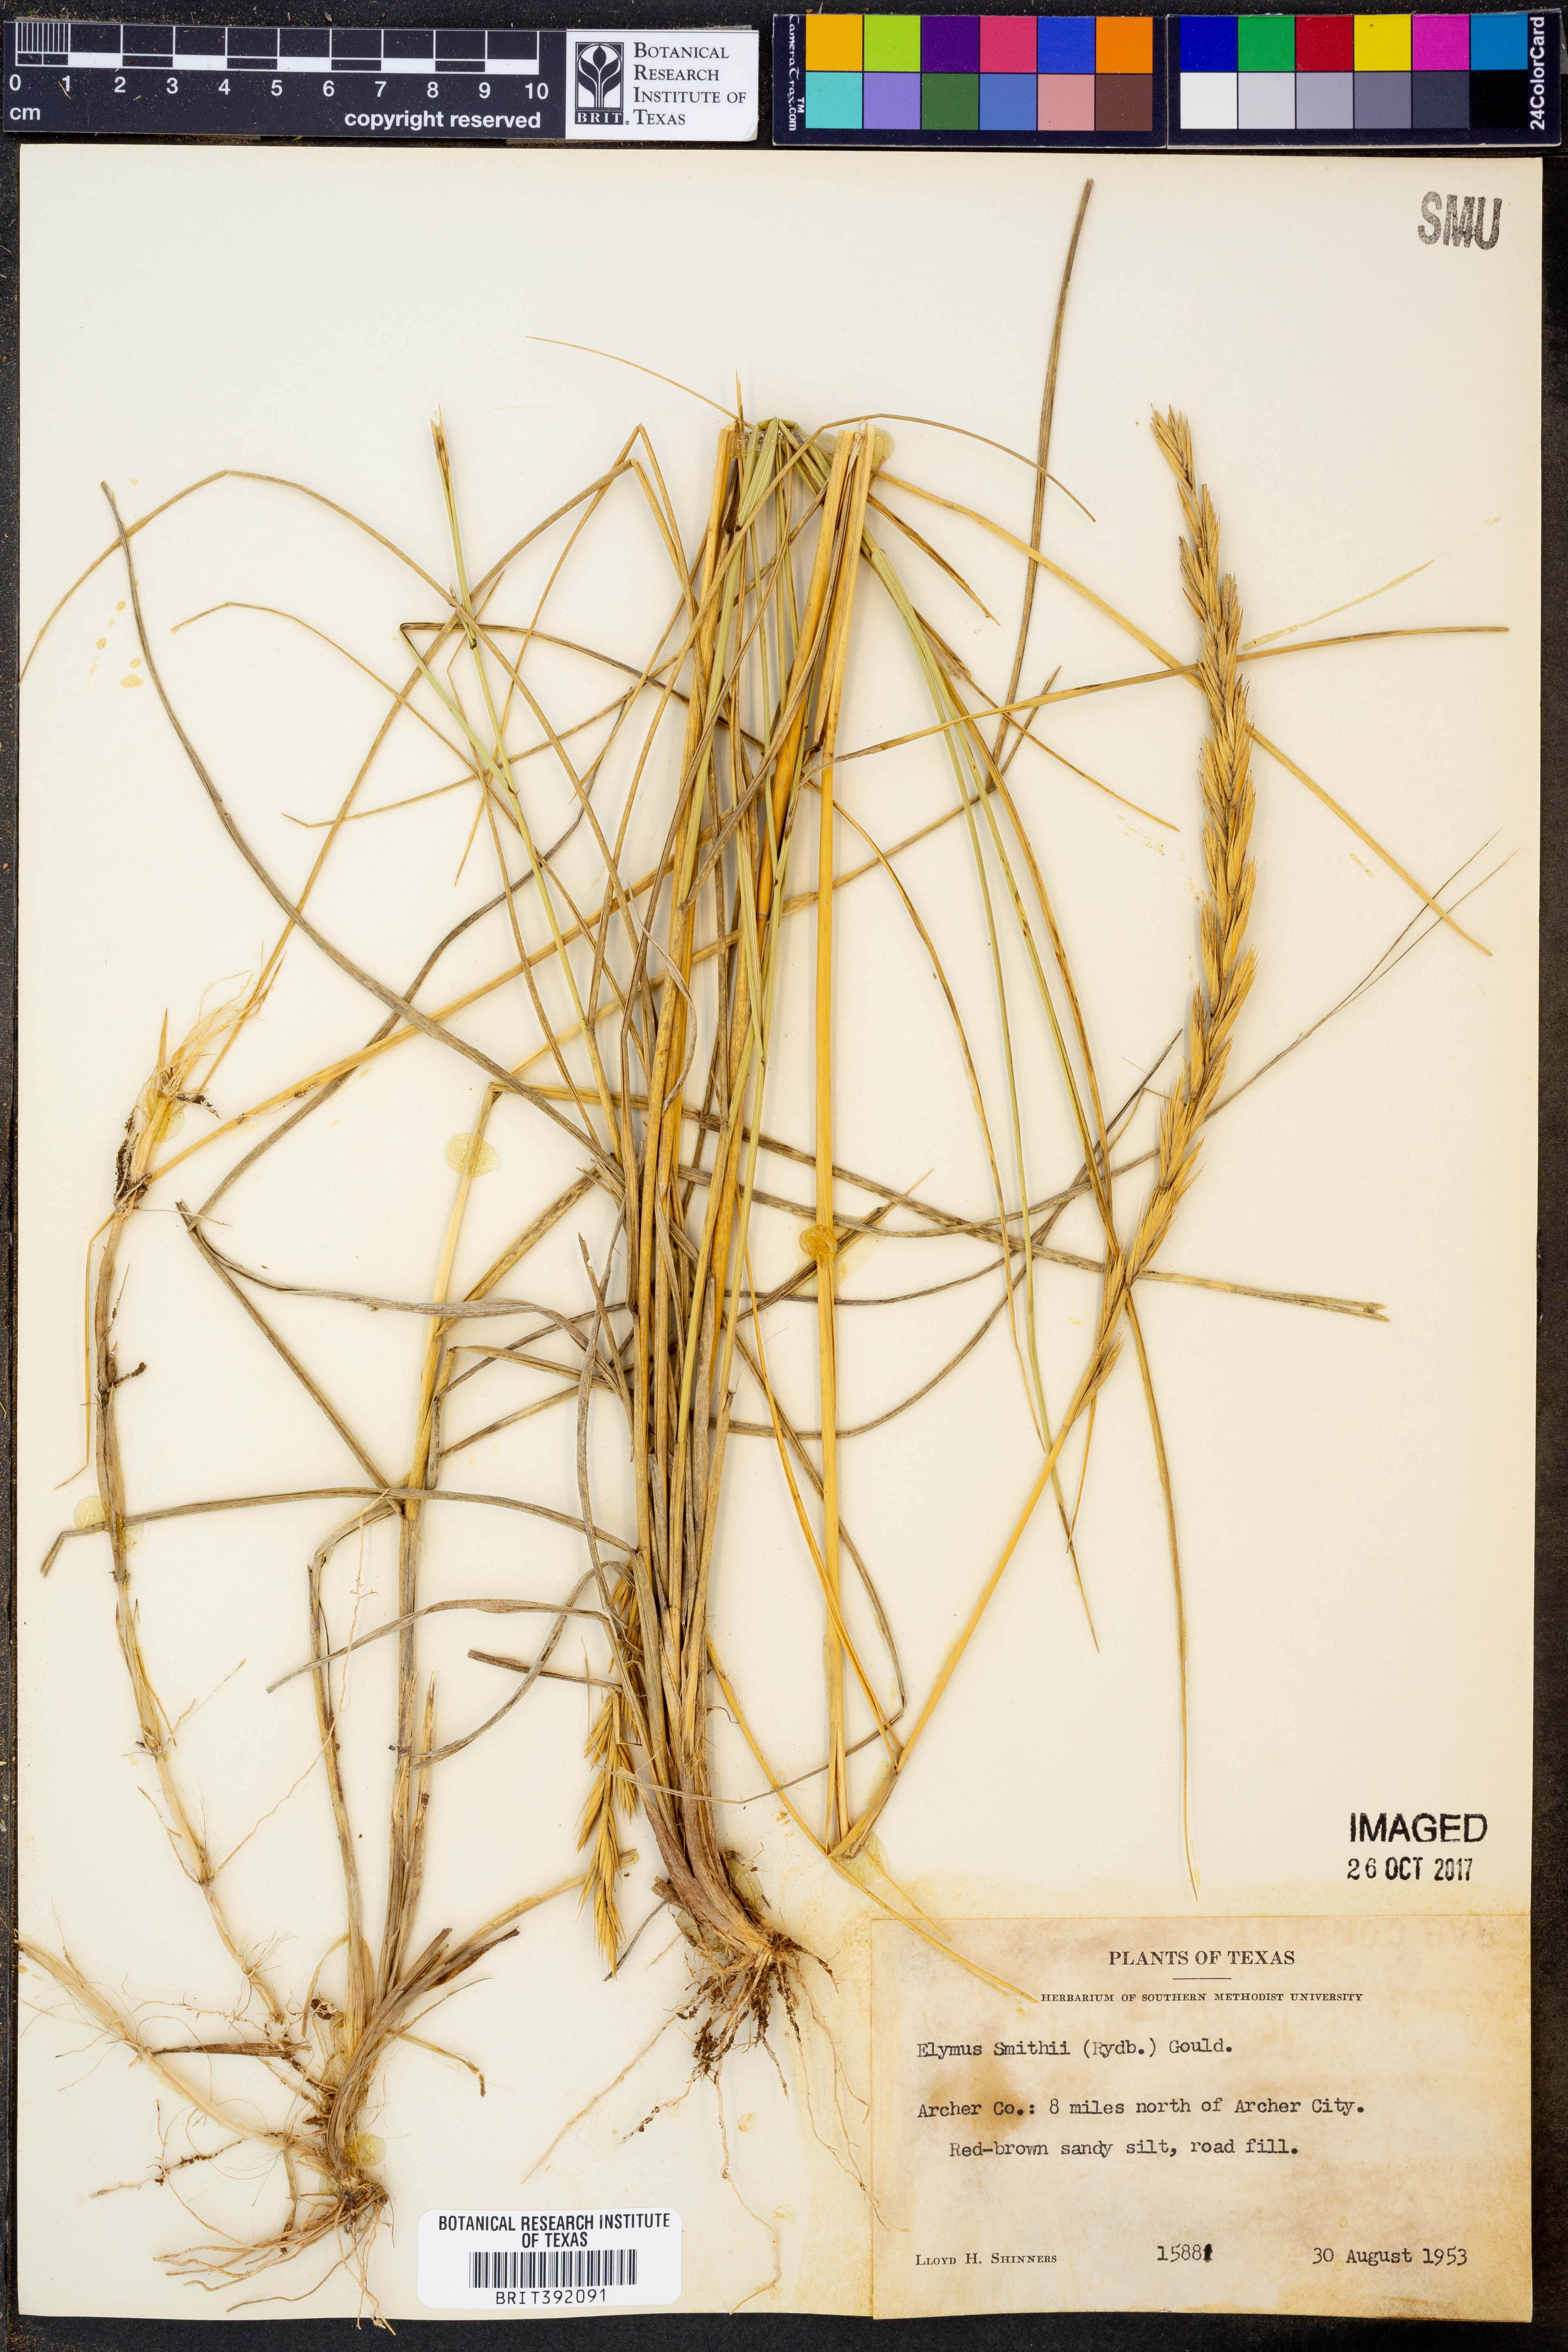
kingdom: Plantae
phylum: Tracheophyta
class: Liliopsida
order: Poales
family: Poaceae
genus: Elymus
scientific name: Elymus smithii
